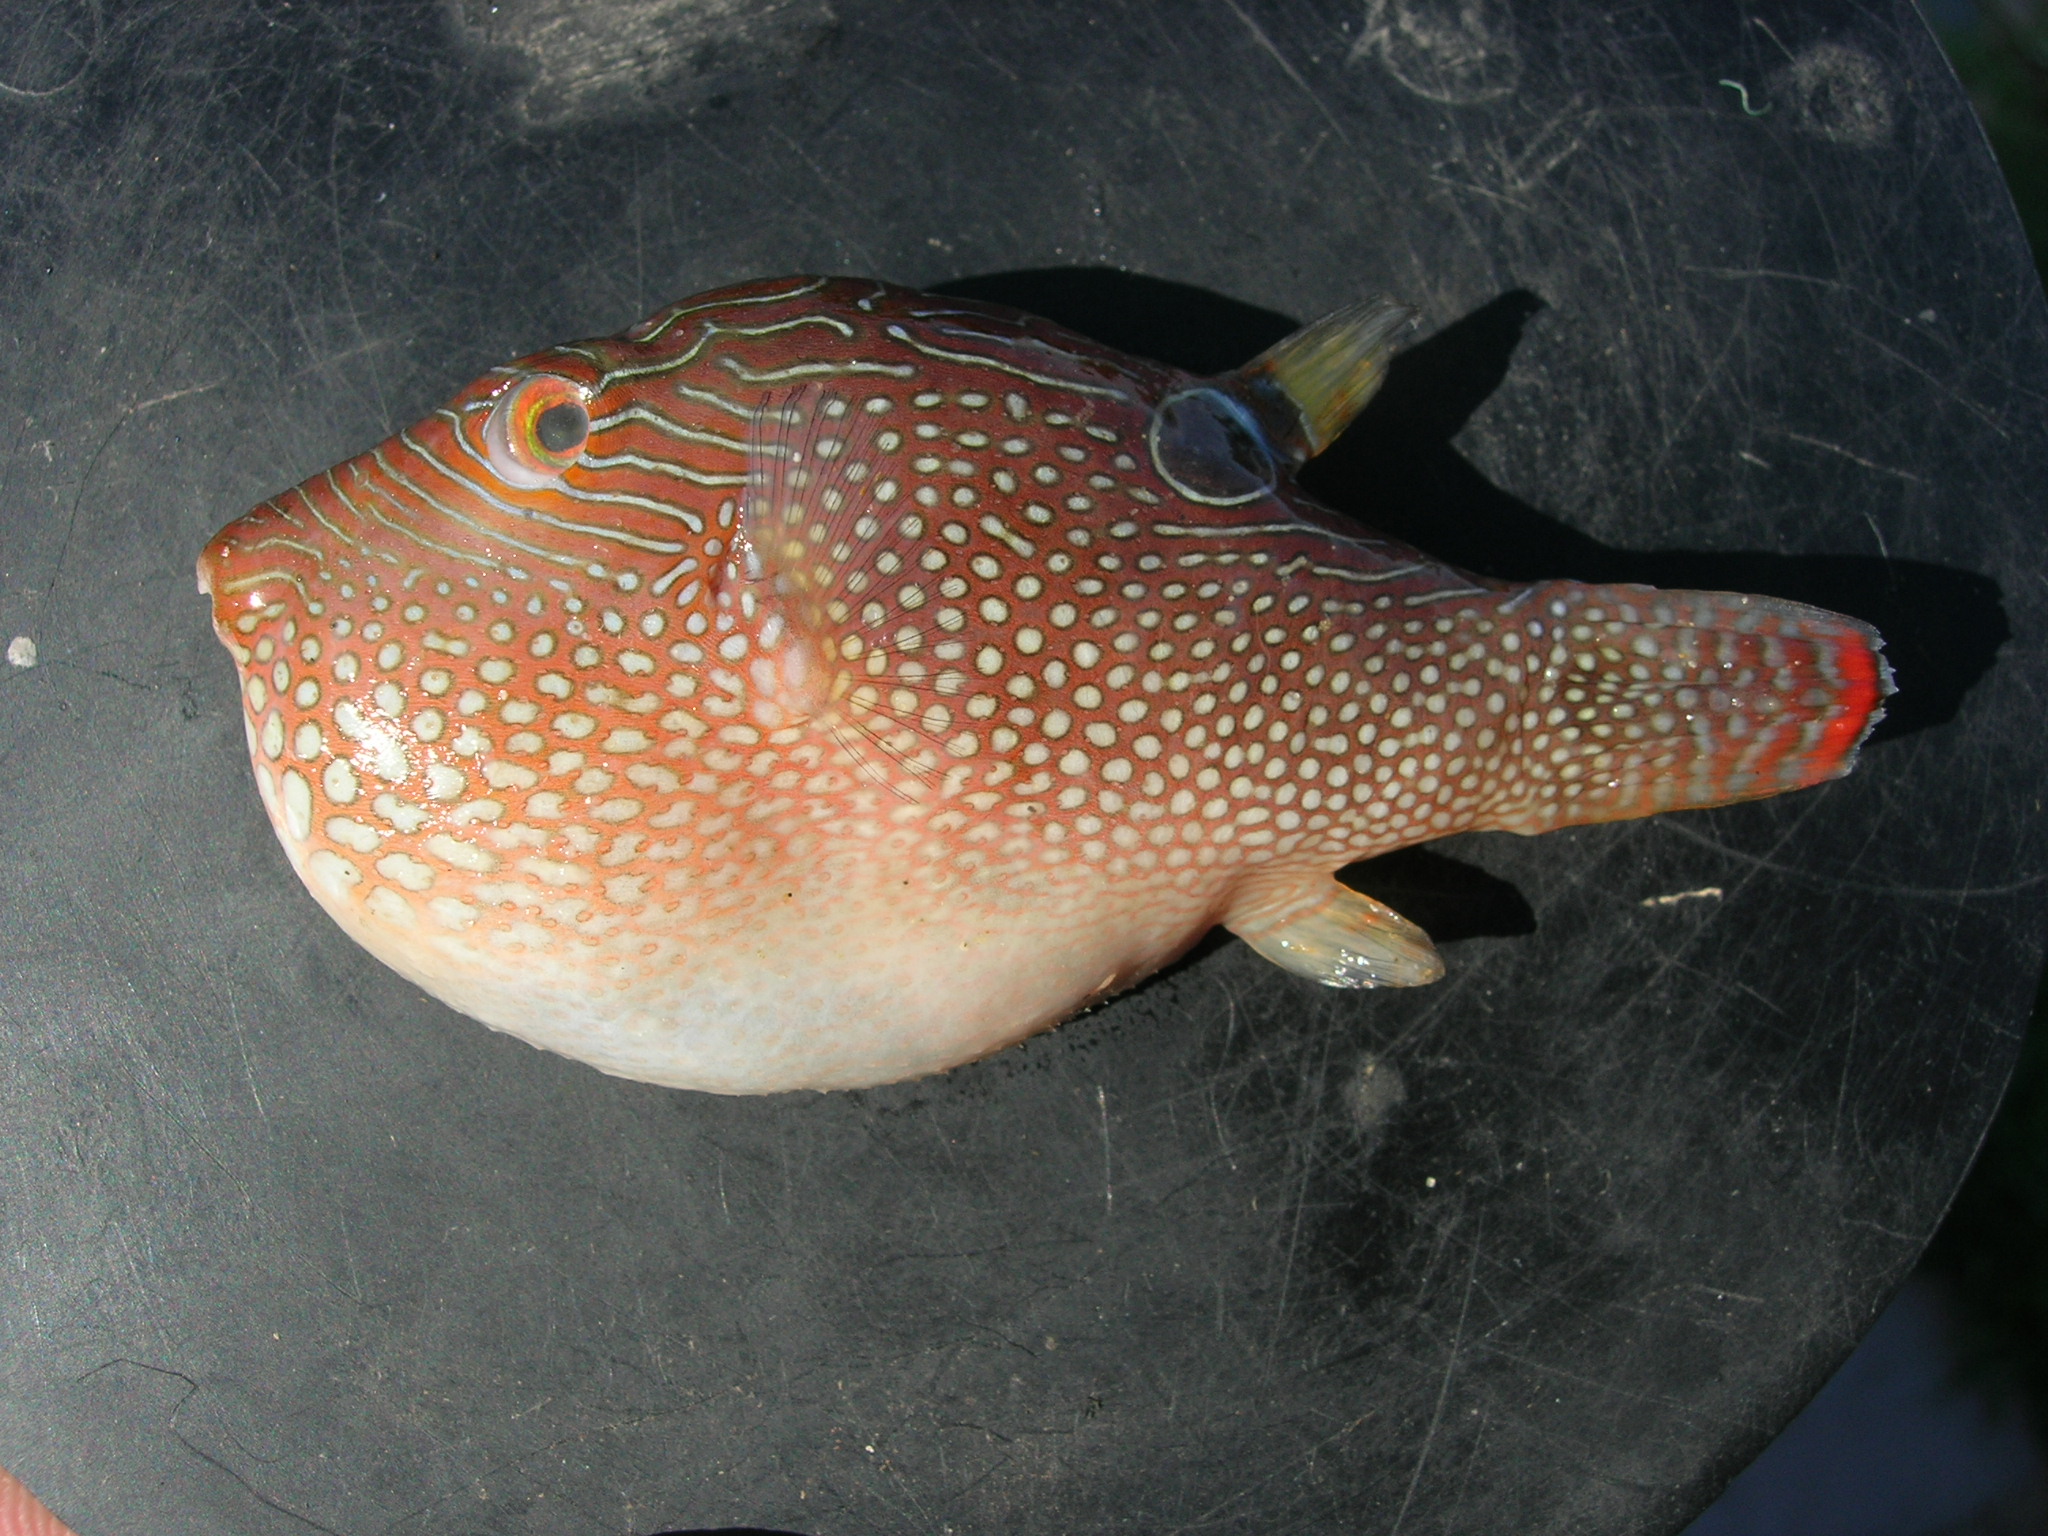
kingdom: Animalia
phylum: Chordata
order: Tetraodontiformes
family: Tetraodontidae
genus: Canthigaster
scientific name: Canthigaster solandri
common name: False-eye toby
